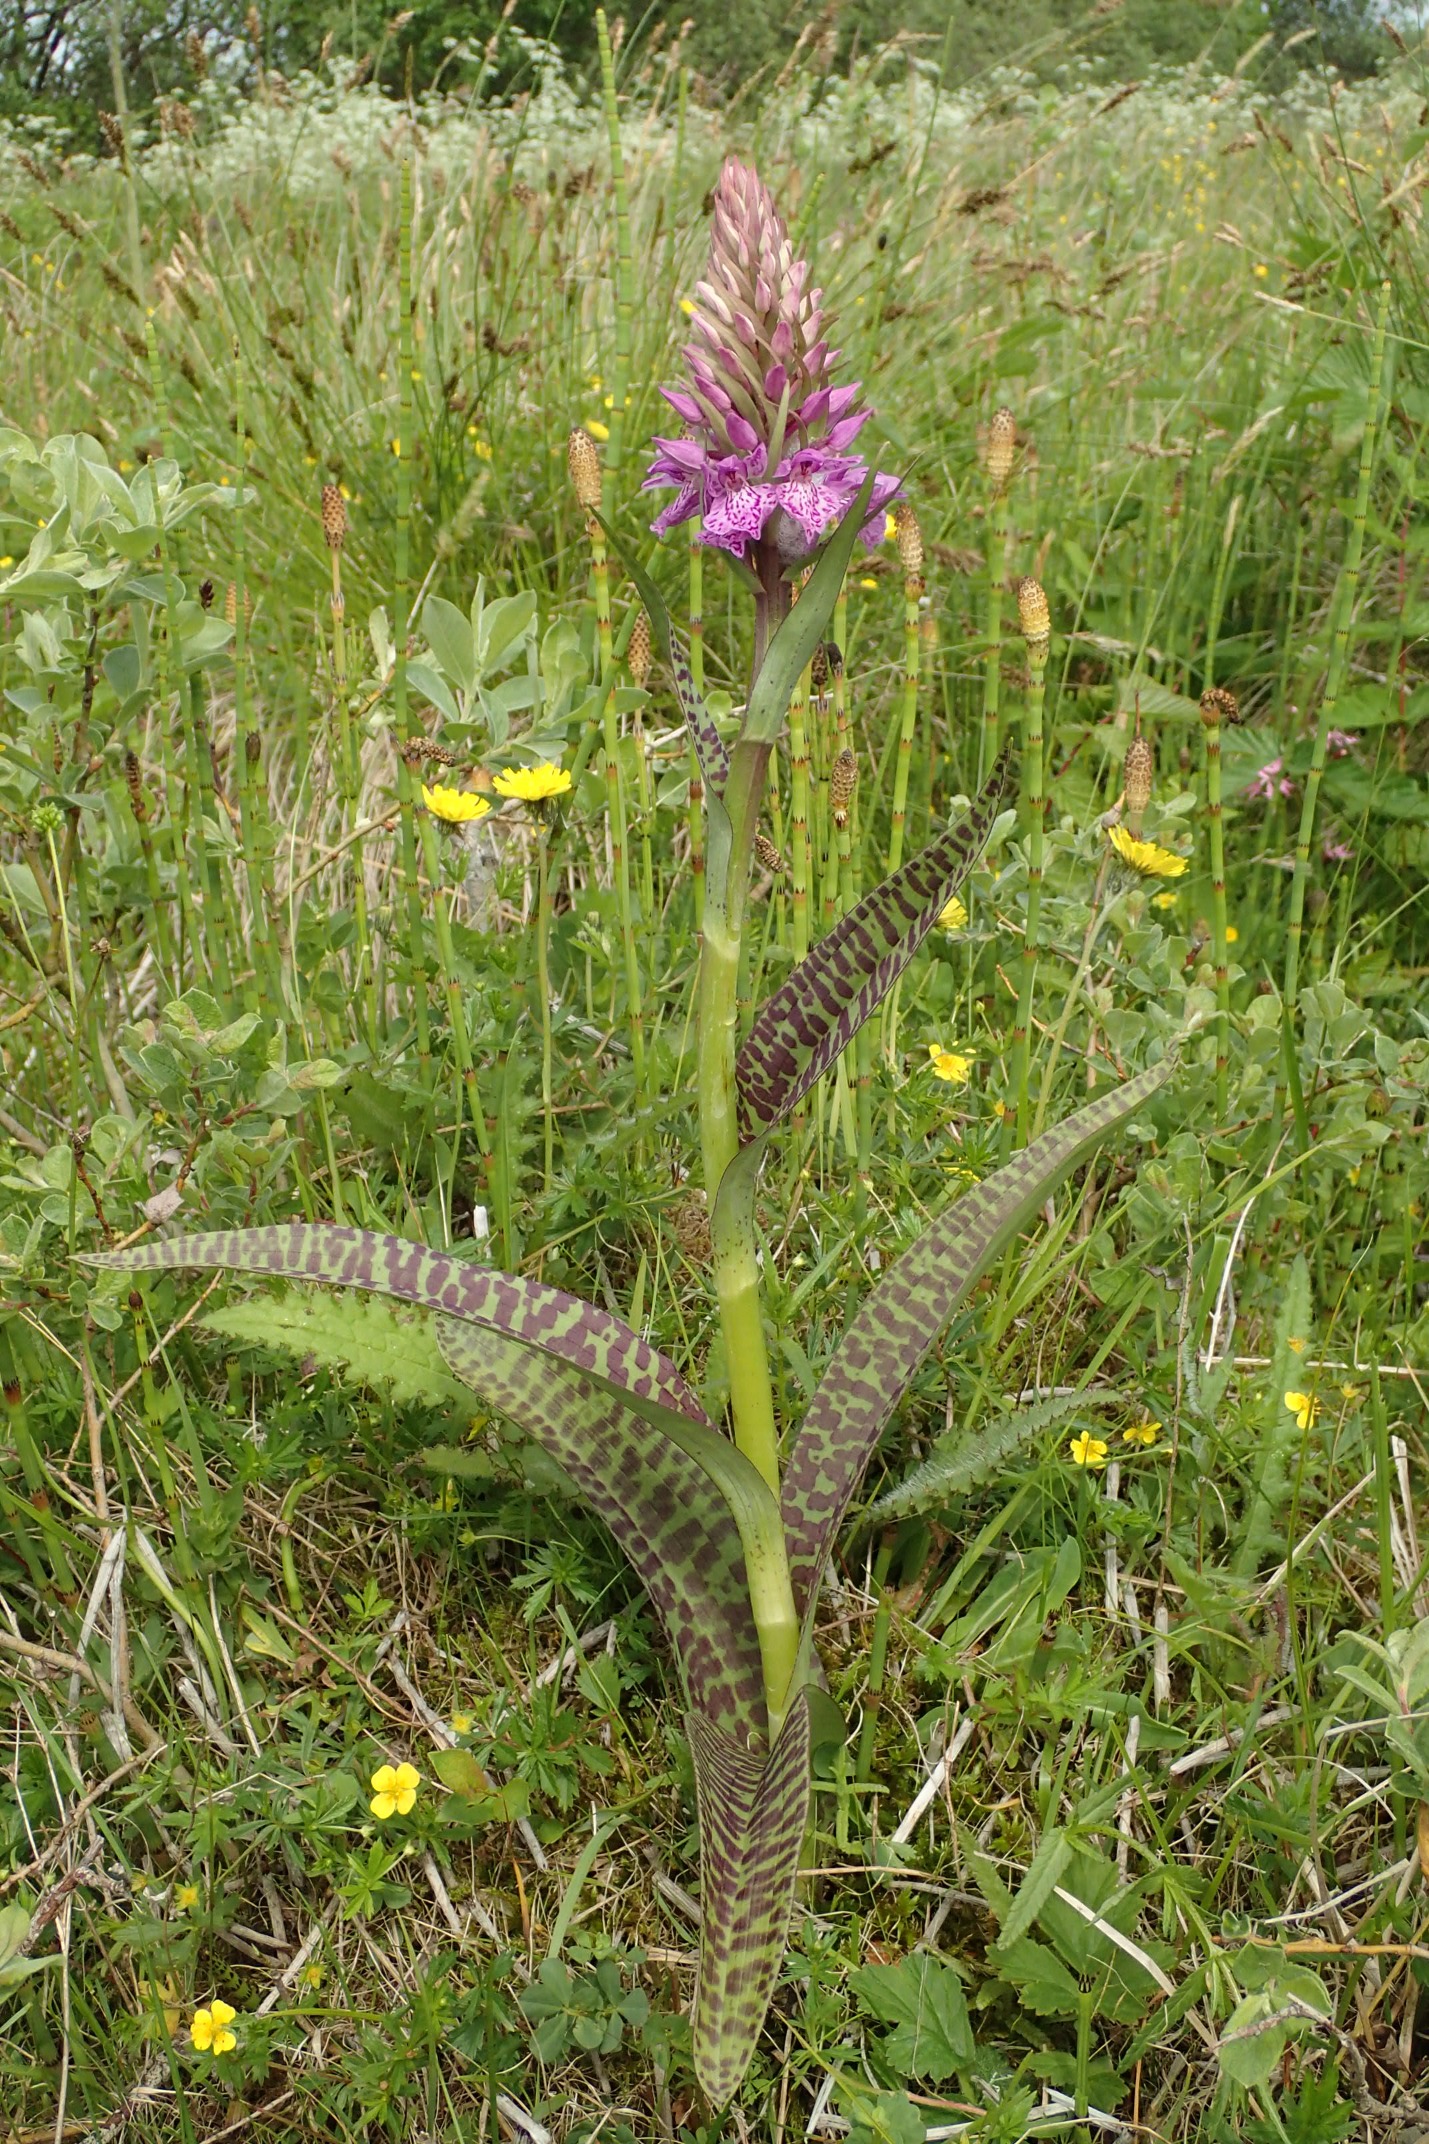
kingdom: Plantae
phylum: Tracheophyta
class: Liliopsida
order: Asparagales
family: Orchidaceae
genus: Dactylorhiza
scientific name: Dactylorhiza maculata
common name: Plettet gøgeurt
